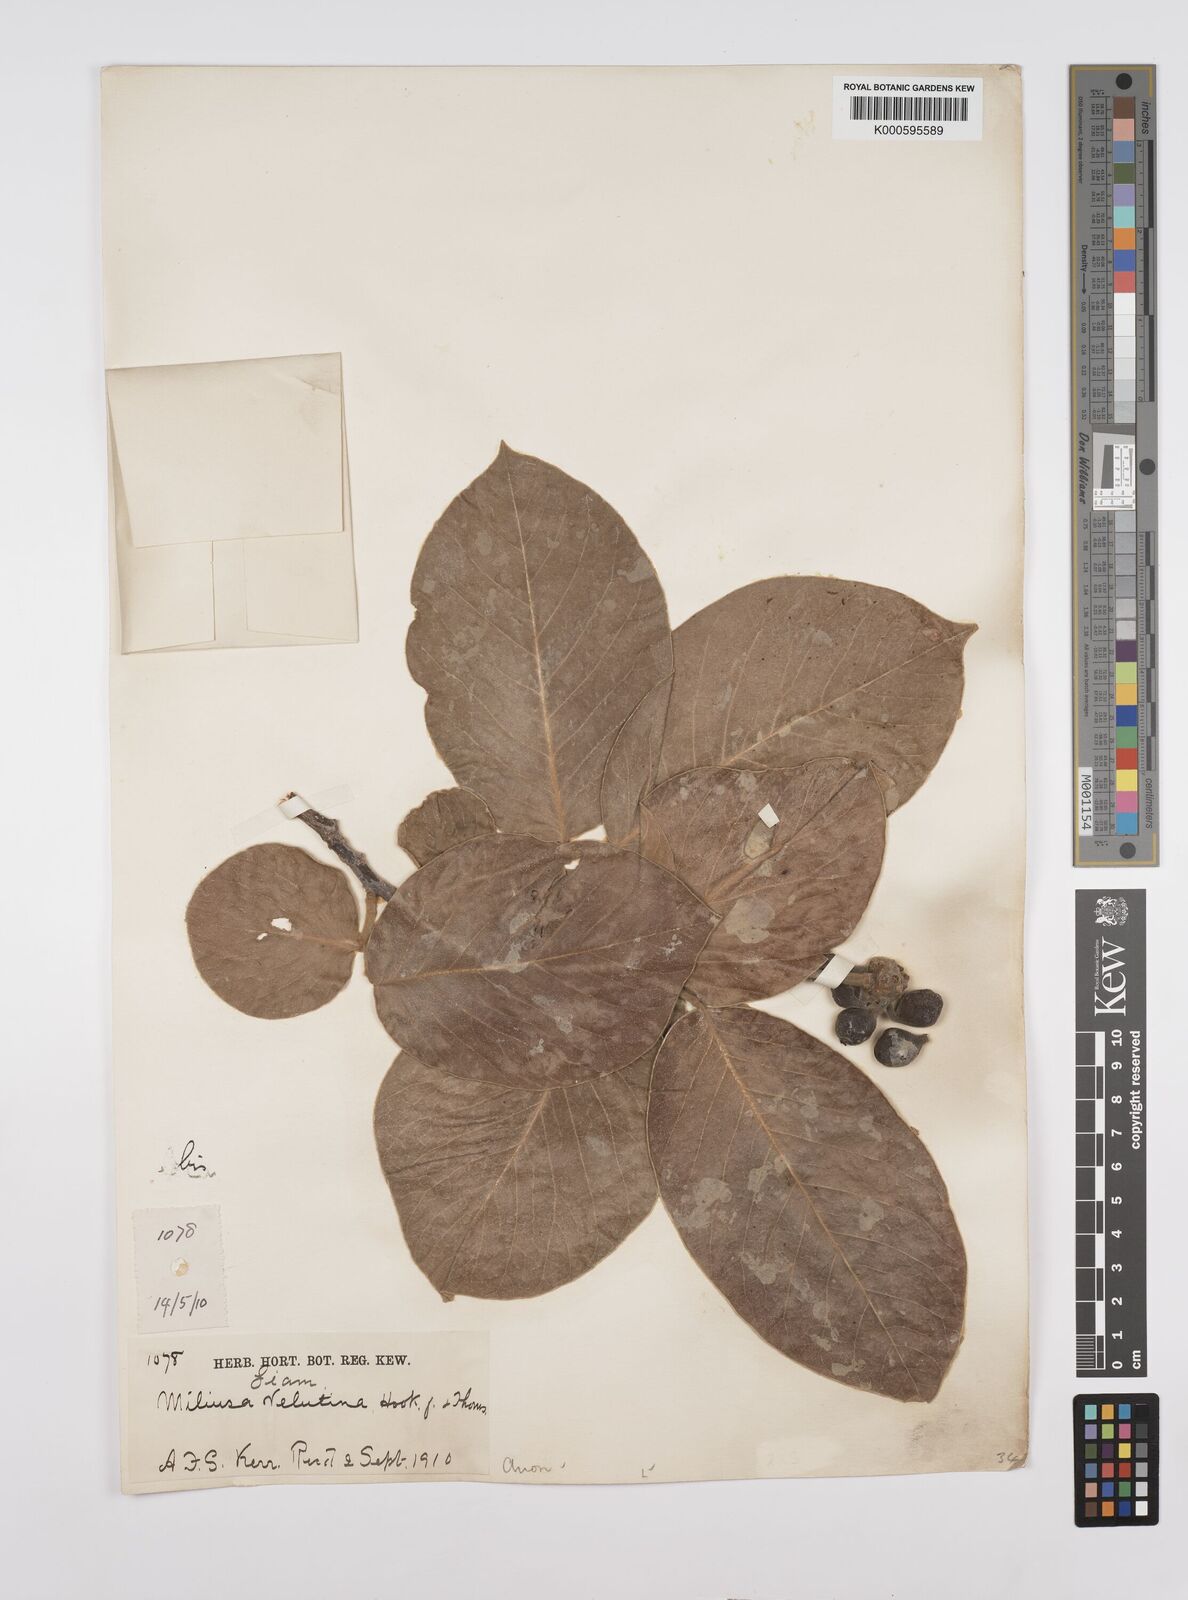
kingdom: Plantae
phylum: Tracheophyta
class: Magnoliopsida
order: Magnoliales
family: Annonaceae
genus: Miliusa
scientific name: Miliusa velutina
